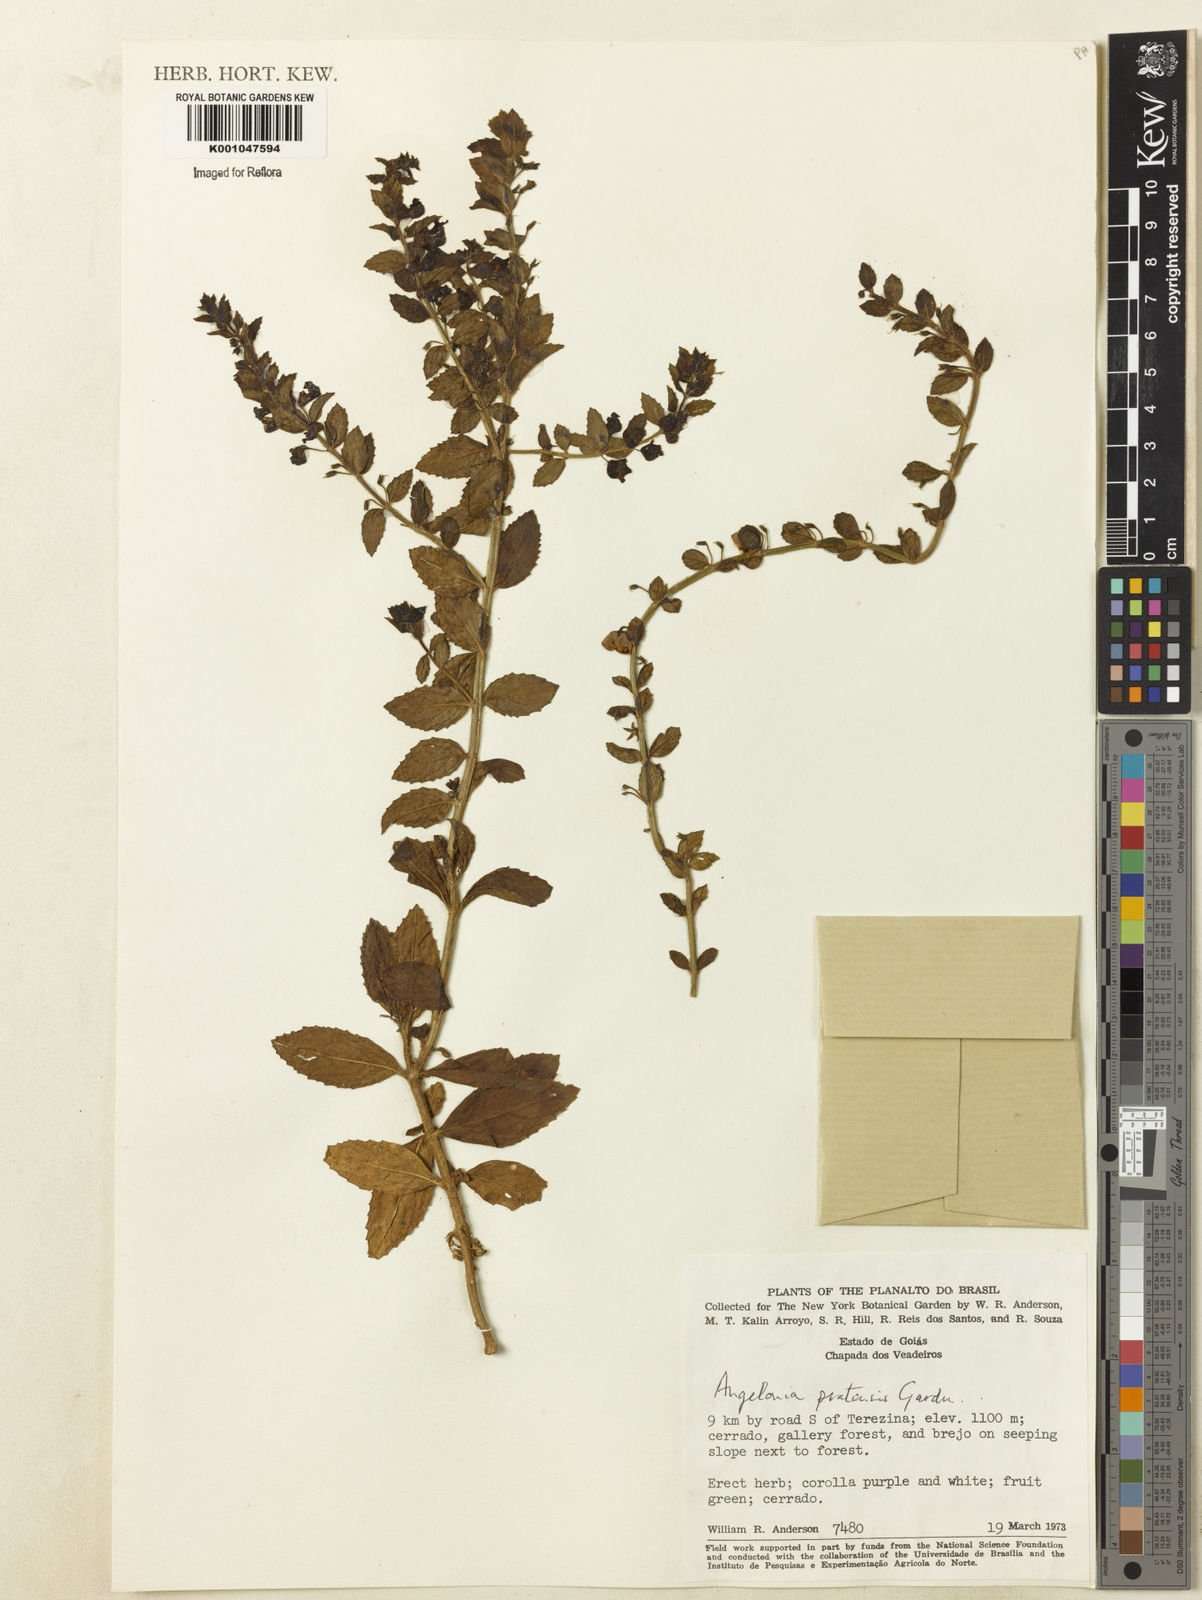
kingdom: Plantae
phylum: Tracheophyta
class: Magnoliopsida
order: Lamiales
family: Plantaginaceae
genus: Angelonia
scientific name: Angelonia pratensis
